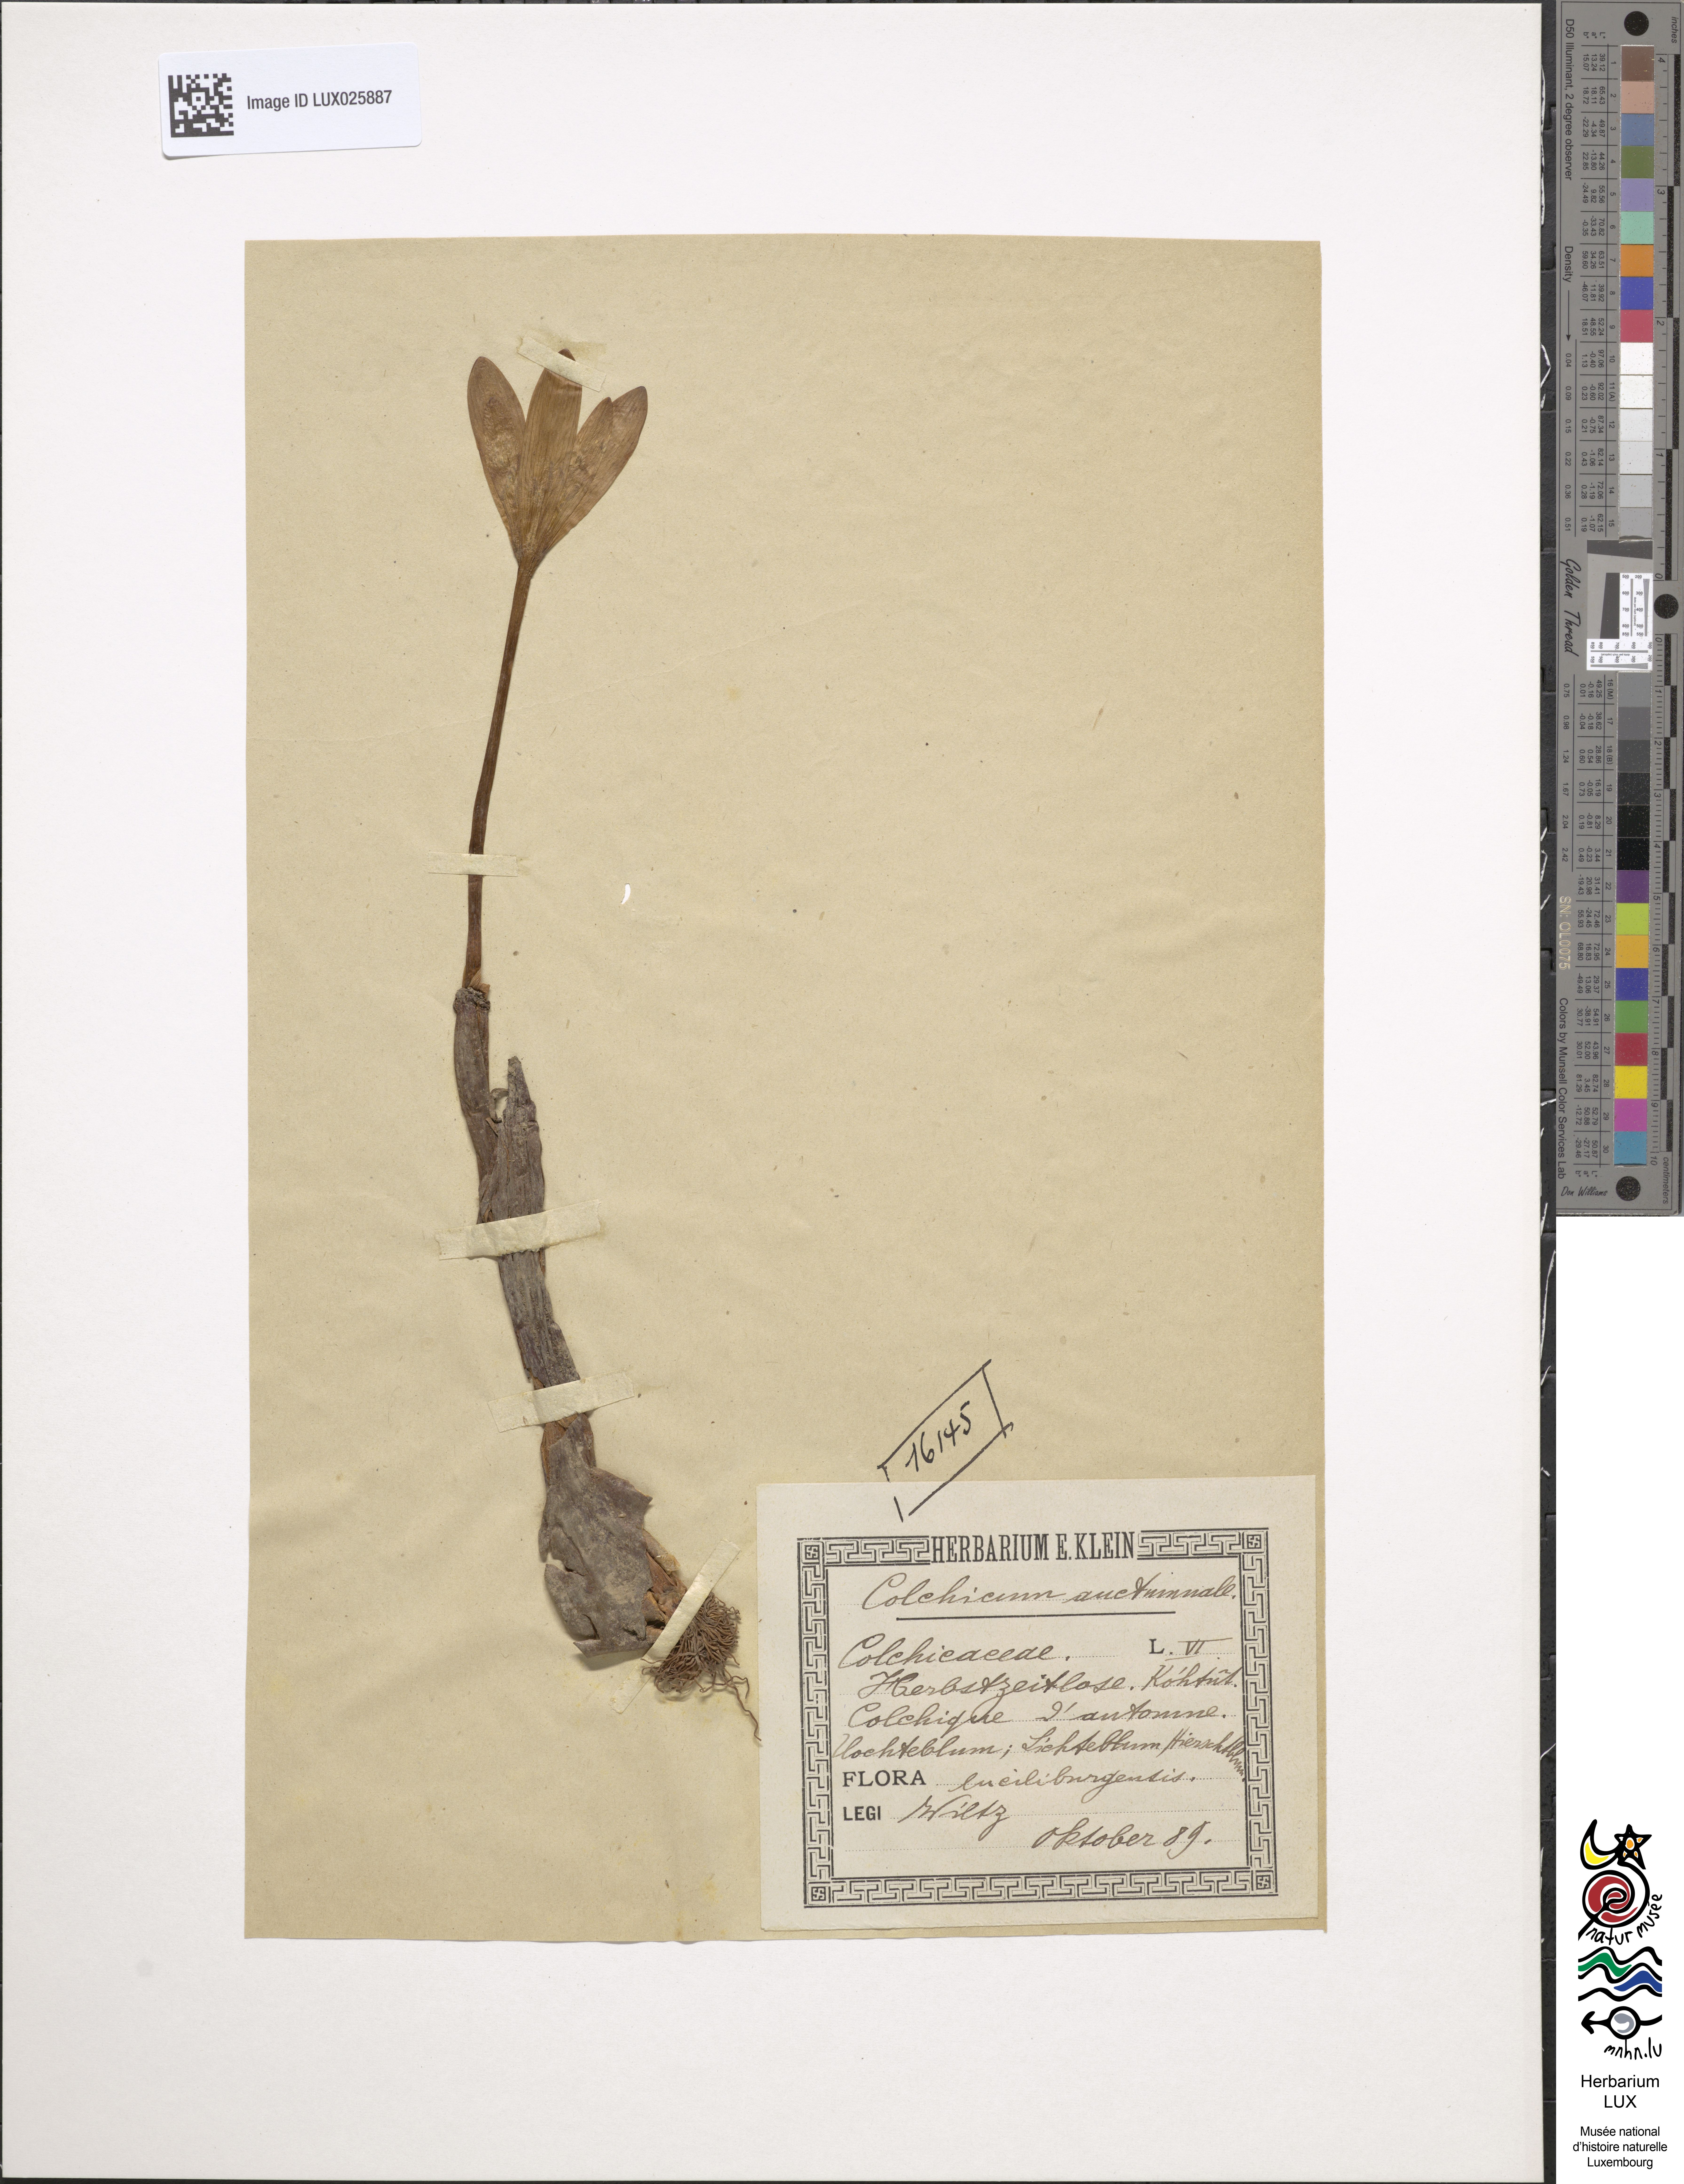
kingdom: Plantae
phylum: Tracheophyta
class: Liliopsida
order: Liliales
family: Colchicaceae
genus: Colchicum
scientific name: Colchicum autumnale
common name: Autumn crocus
